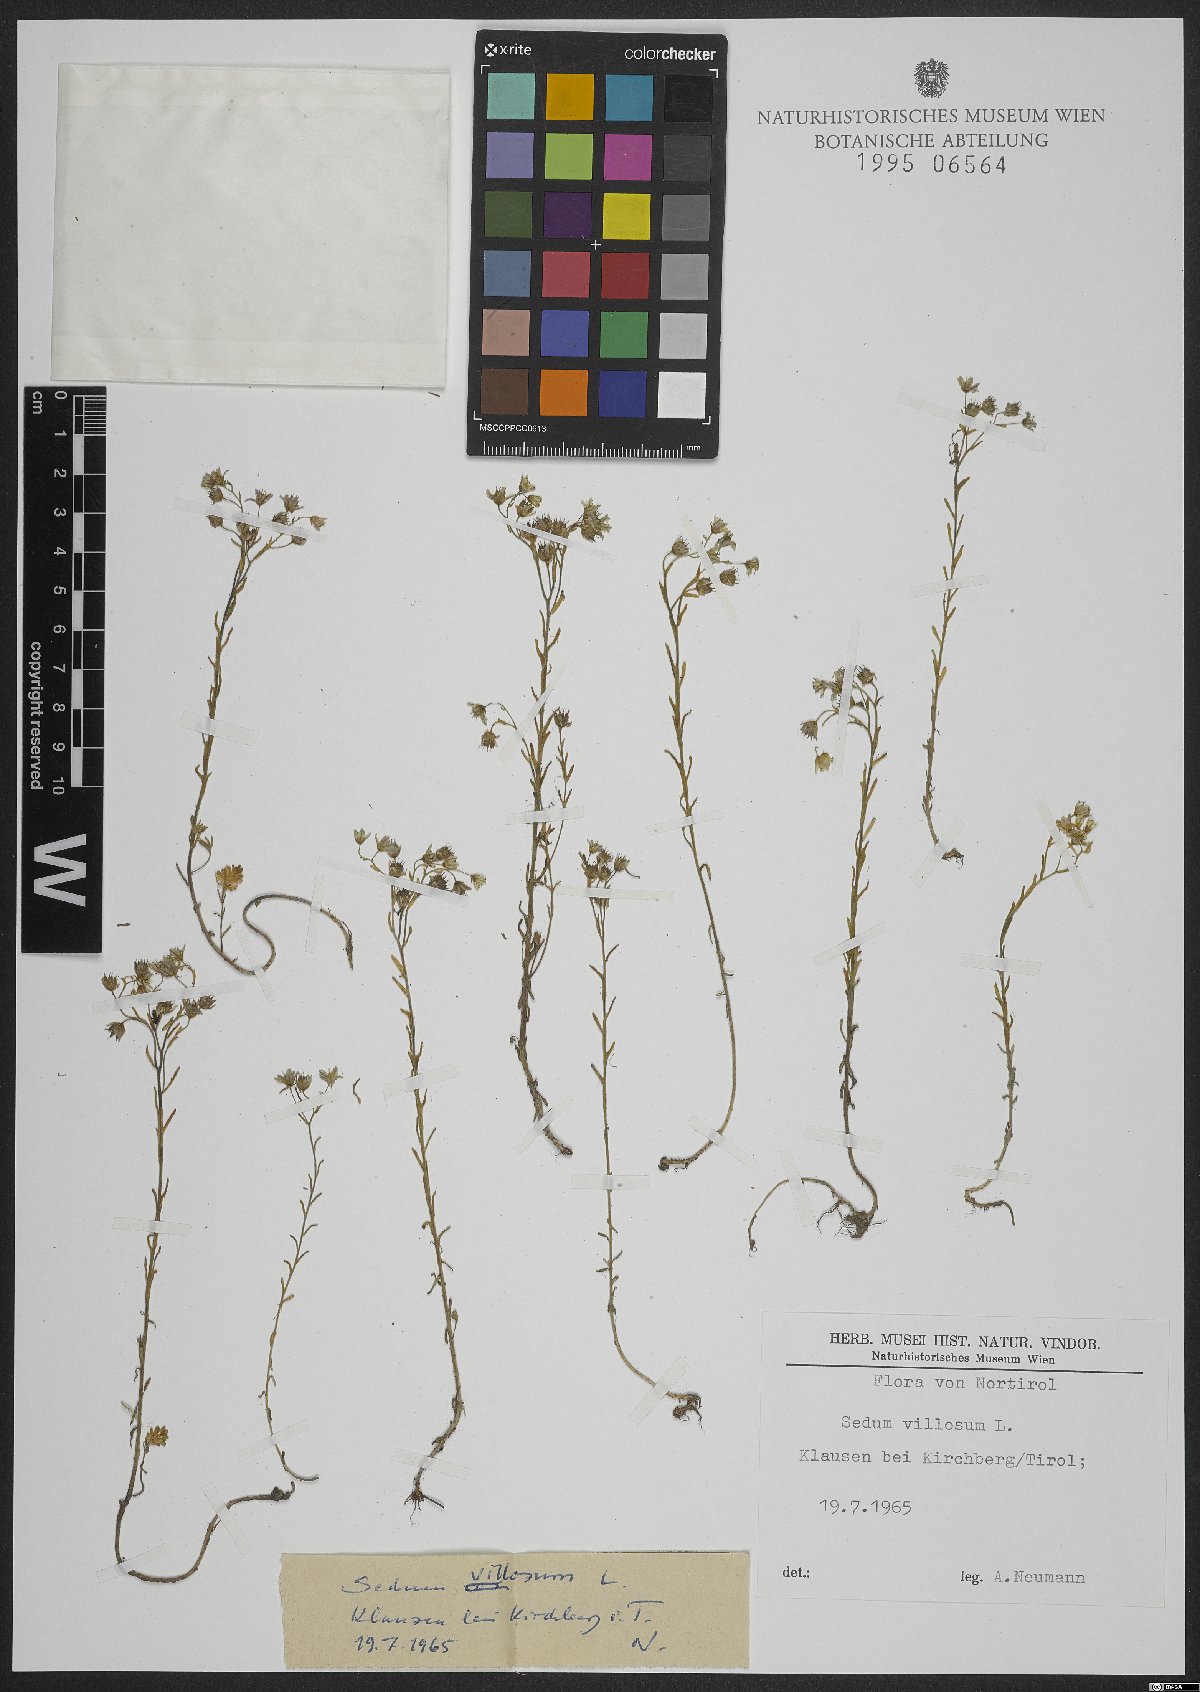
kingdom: Plantae
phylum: Tracheophyta
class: Magnoliopsida
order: Saxifragales
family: Crassulaceae
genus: Sedum
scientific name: Sedum villosum
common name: Hairy stonecrop
